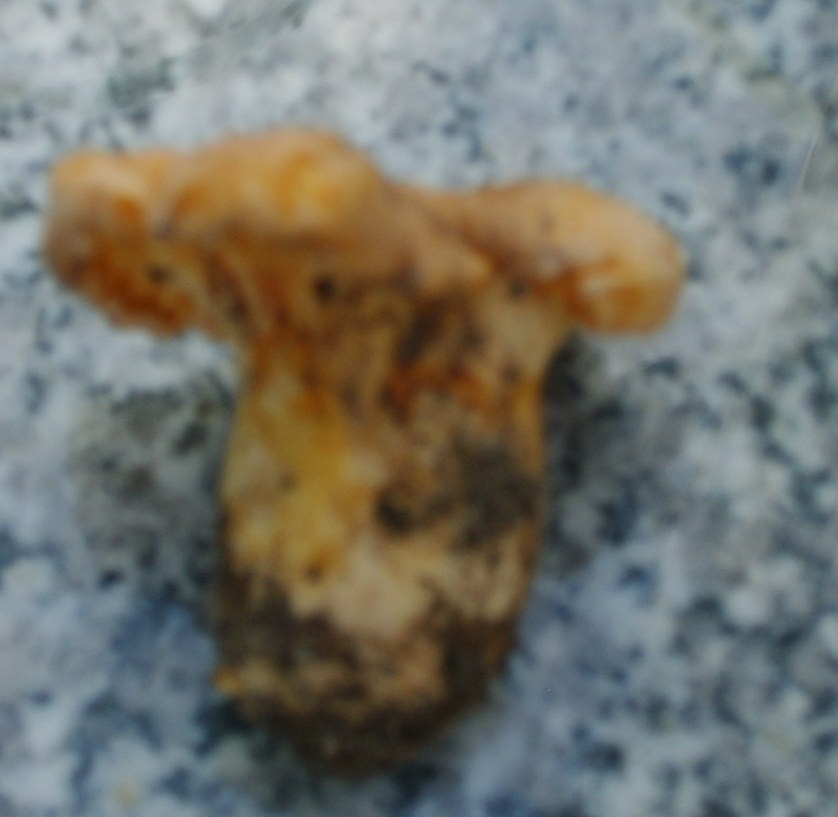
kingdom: Fungi
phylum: Basidiomycota
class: Agaricomycetes
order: Cantharellales
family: Hydnaceae
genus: Cantharellus
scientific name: Cantharellus pallens
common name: bleg kantarel
